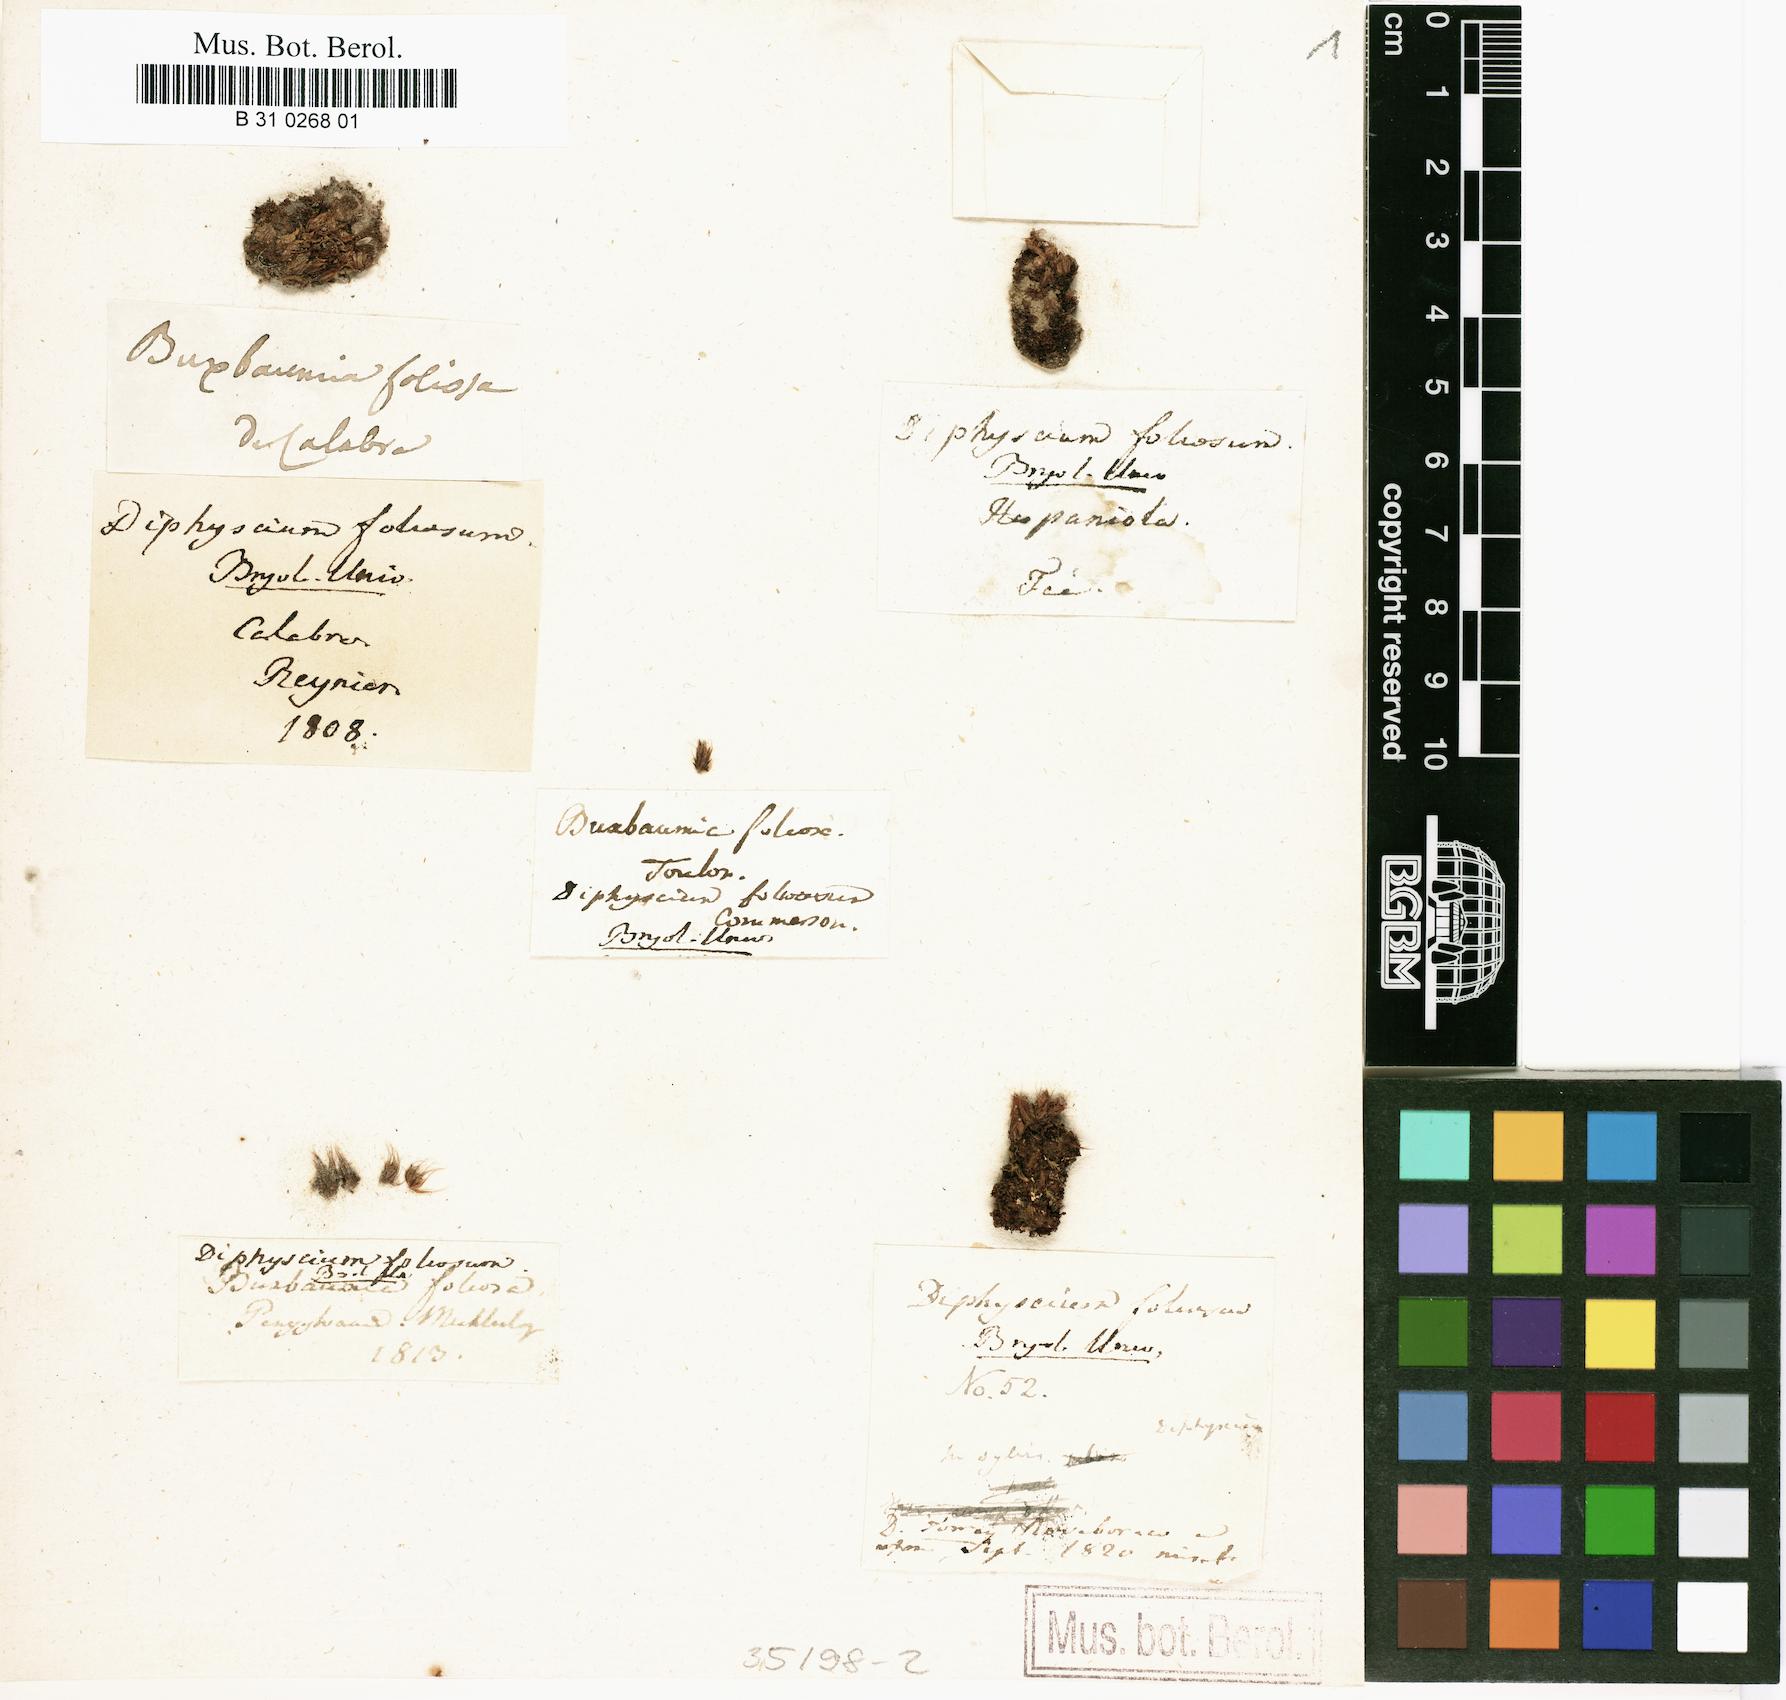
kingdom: Plantae
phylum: Bryophyta
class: Bryopsida
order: Diphysciales
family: Diphysciaceae
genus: Diphyscium
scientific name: Diphyscium foliosum
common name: Nut moss
